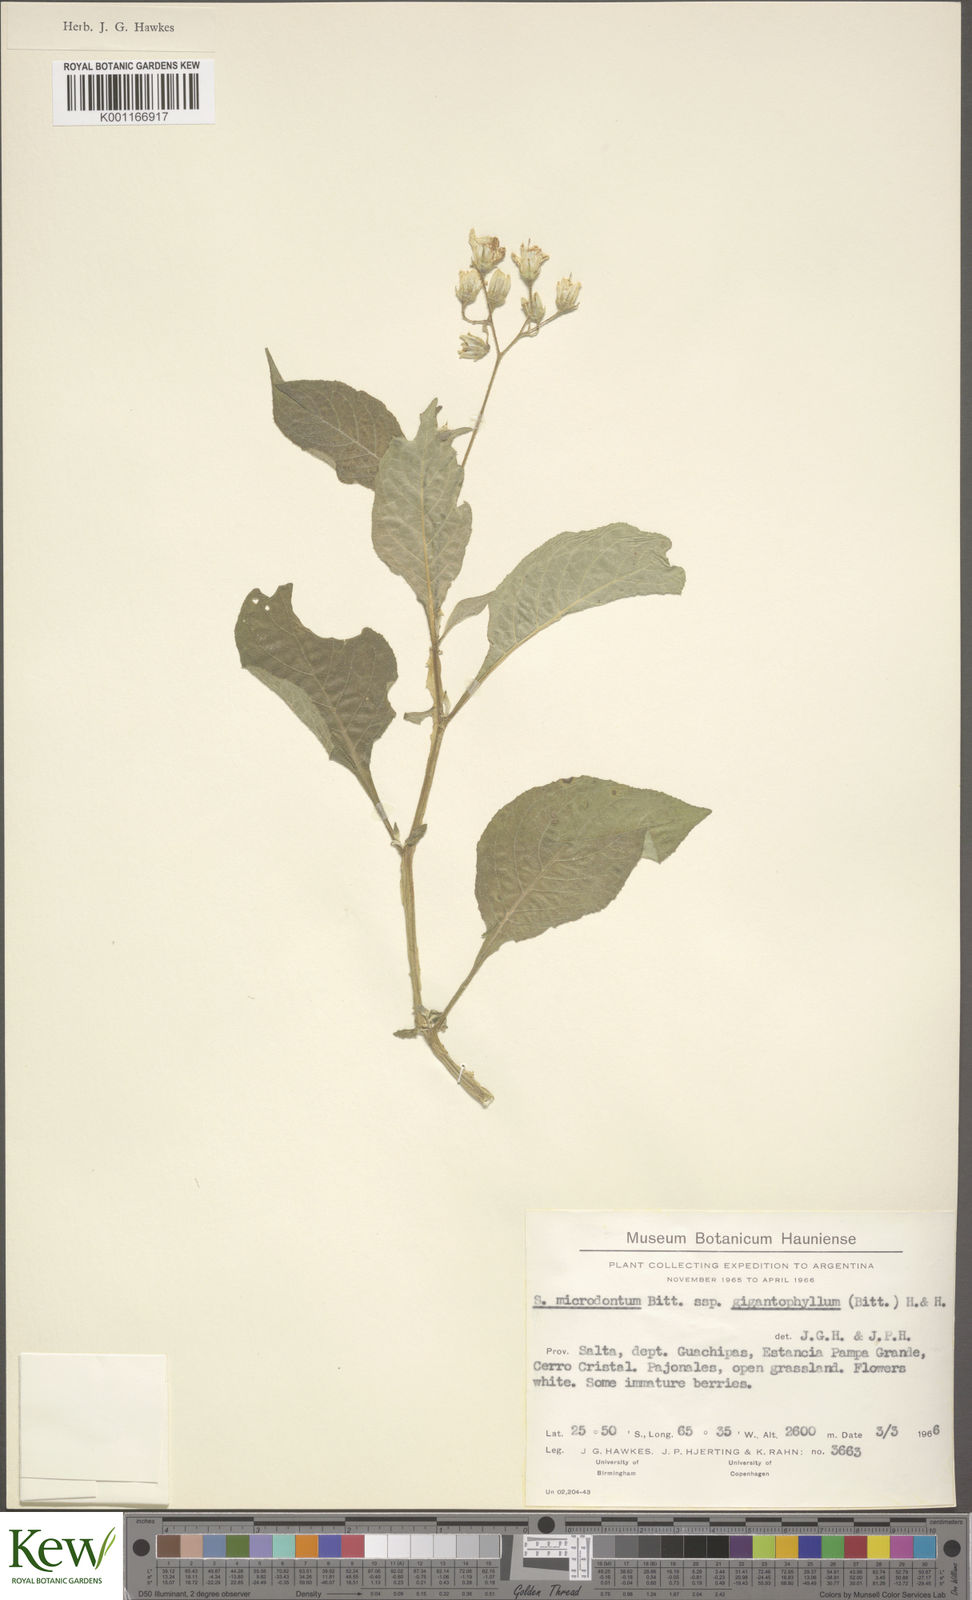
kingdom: Plantae
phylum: Tracheophyta
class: Magnoliopsida
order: Solanales
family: Solanaceae
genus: Solanum
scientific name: Solanum microdontum
